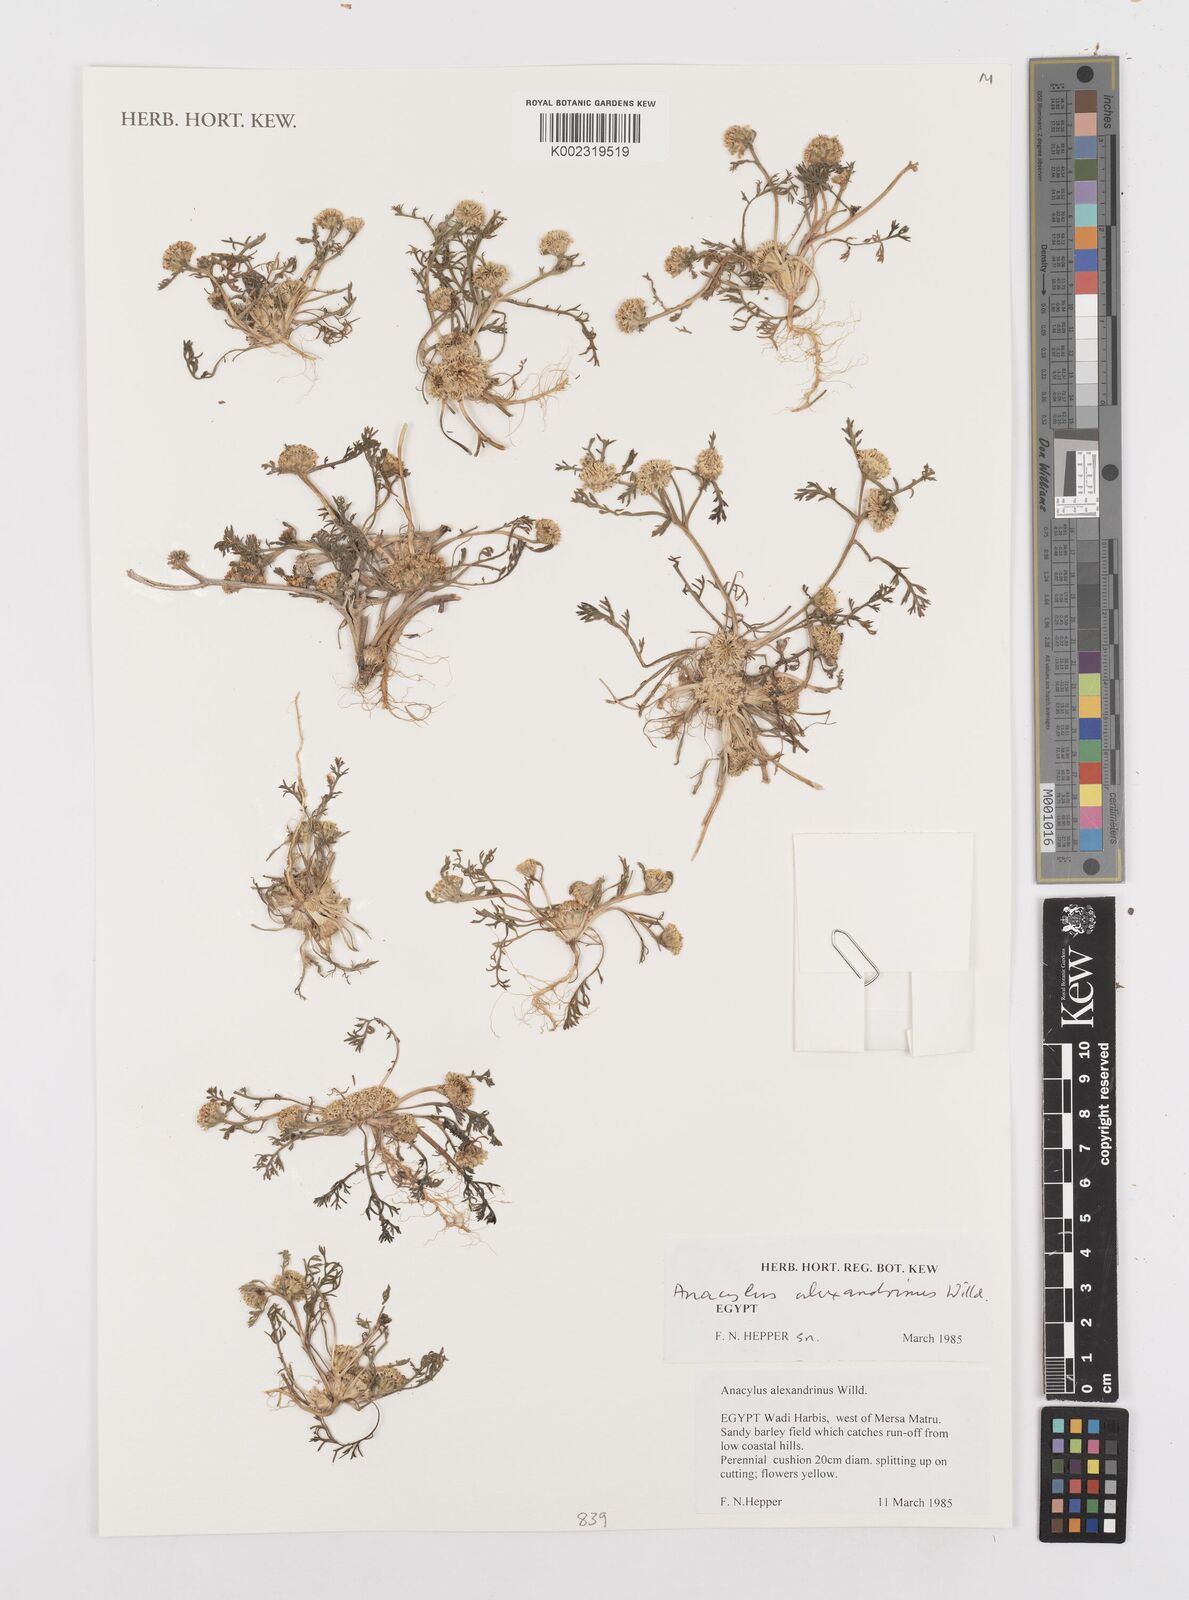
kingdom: Plantae
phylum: Tracheophyta
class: Magnoliopsida
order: Asterales
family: Asteraceae
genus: Anacyclus
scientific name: Anacyclus monanthos
